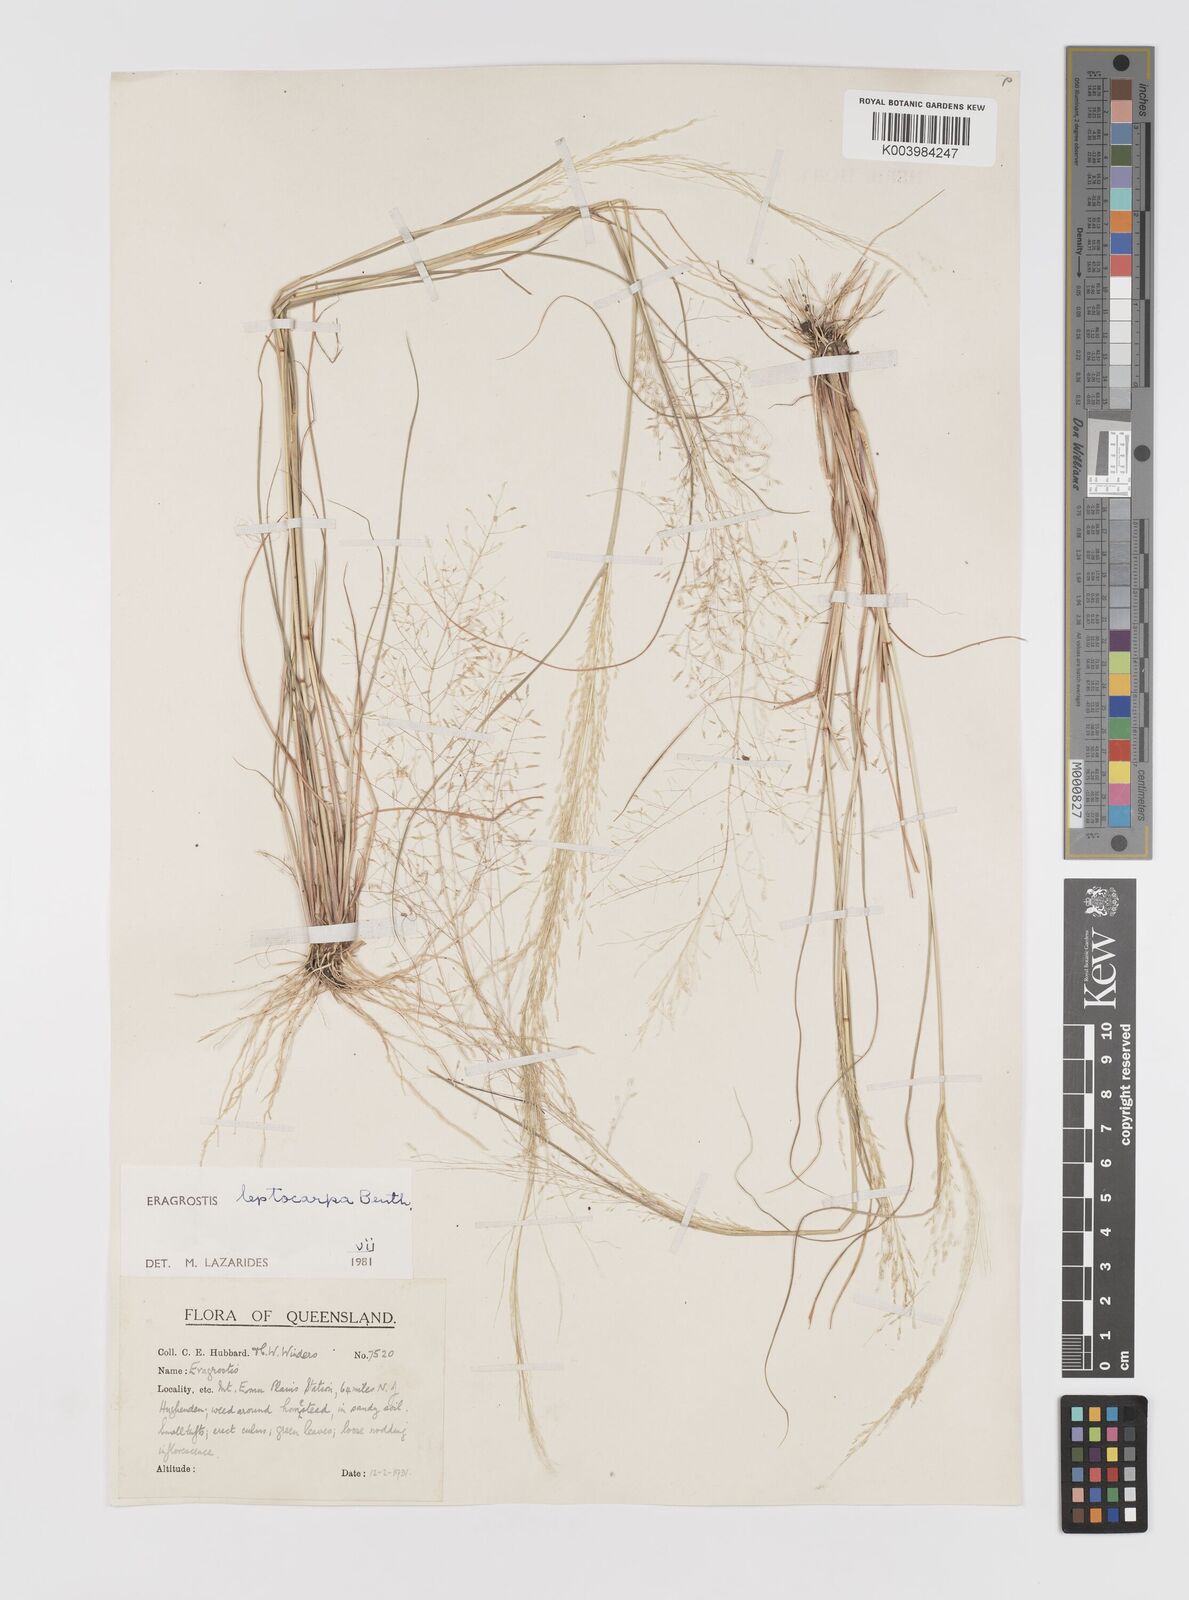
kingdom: Plantae
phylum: Tracheophyta
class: Liliopsida
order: Poales
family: Poaceae
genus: Eragrostis
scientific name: Eragrostis leptocarpa
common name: Drooping love grass
